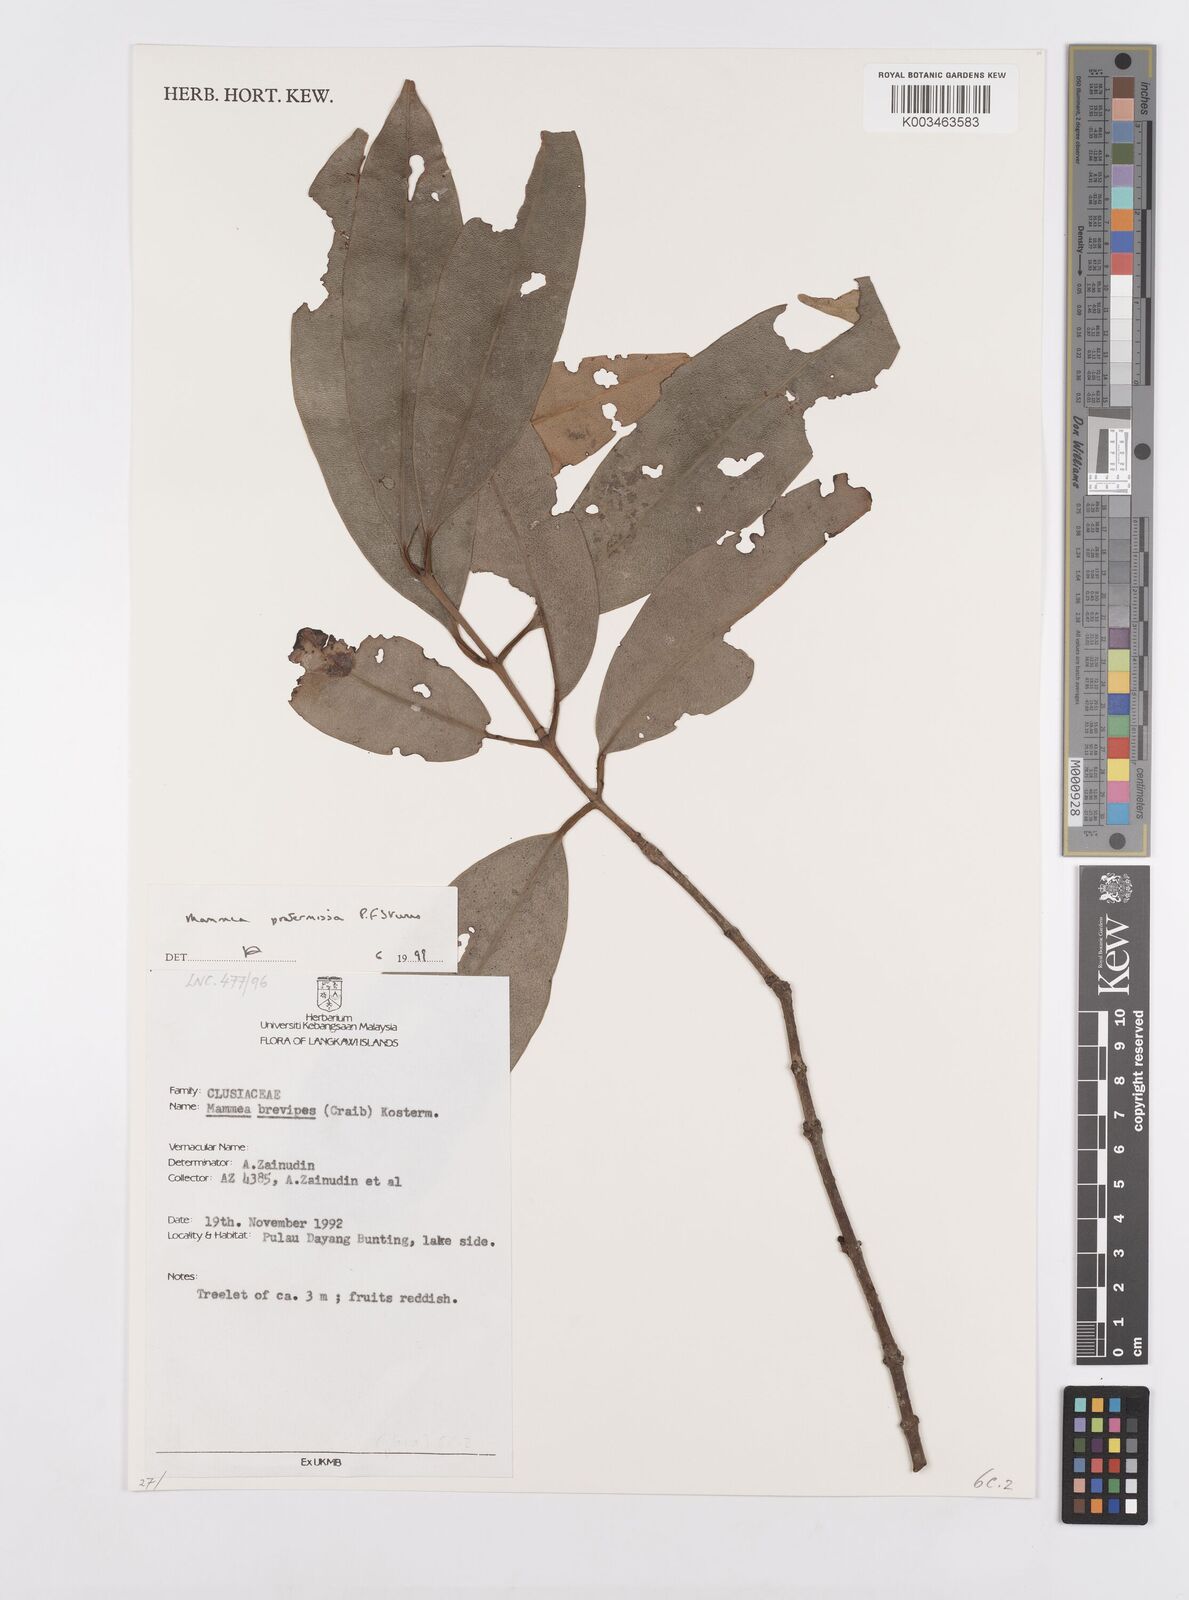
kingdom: Plantae
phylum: Tracheophyta
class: Magnoliopsida
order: Malpighiales
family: Calophyllaceae
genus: Mammea
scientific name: Mammea
